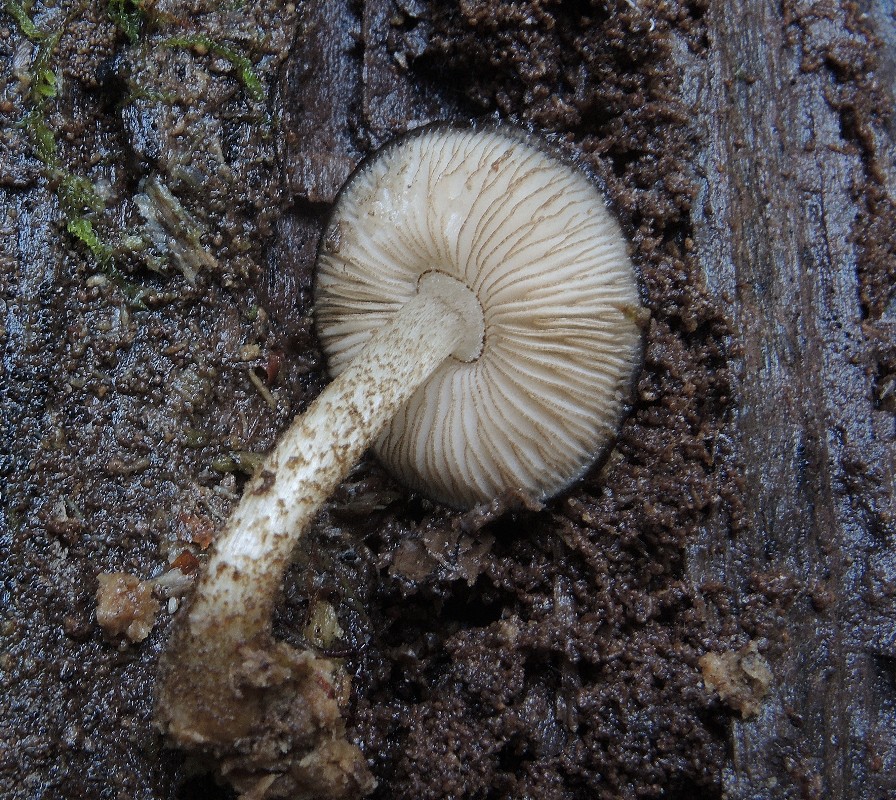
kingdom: Fungi
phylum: Basidiomycota
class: Agaricomycetes
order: Agaricales
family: Pluteaceae
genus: Pluteus
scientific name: Pluteus umbrosus
